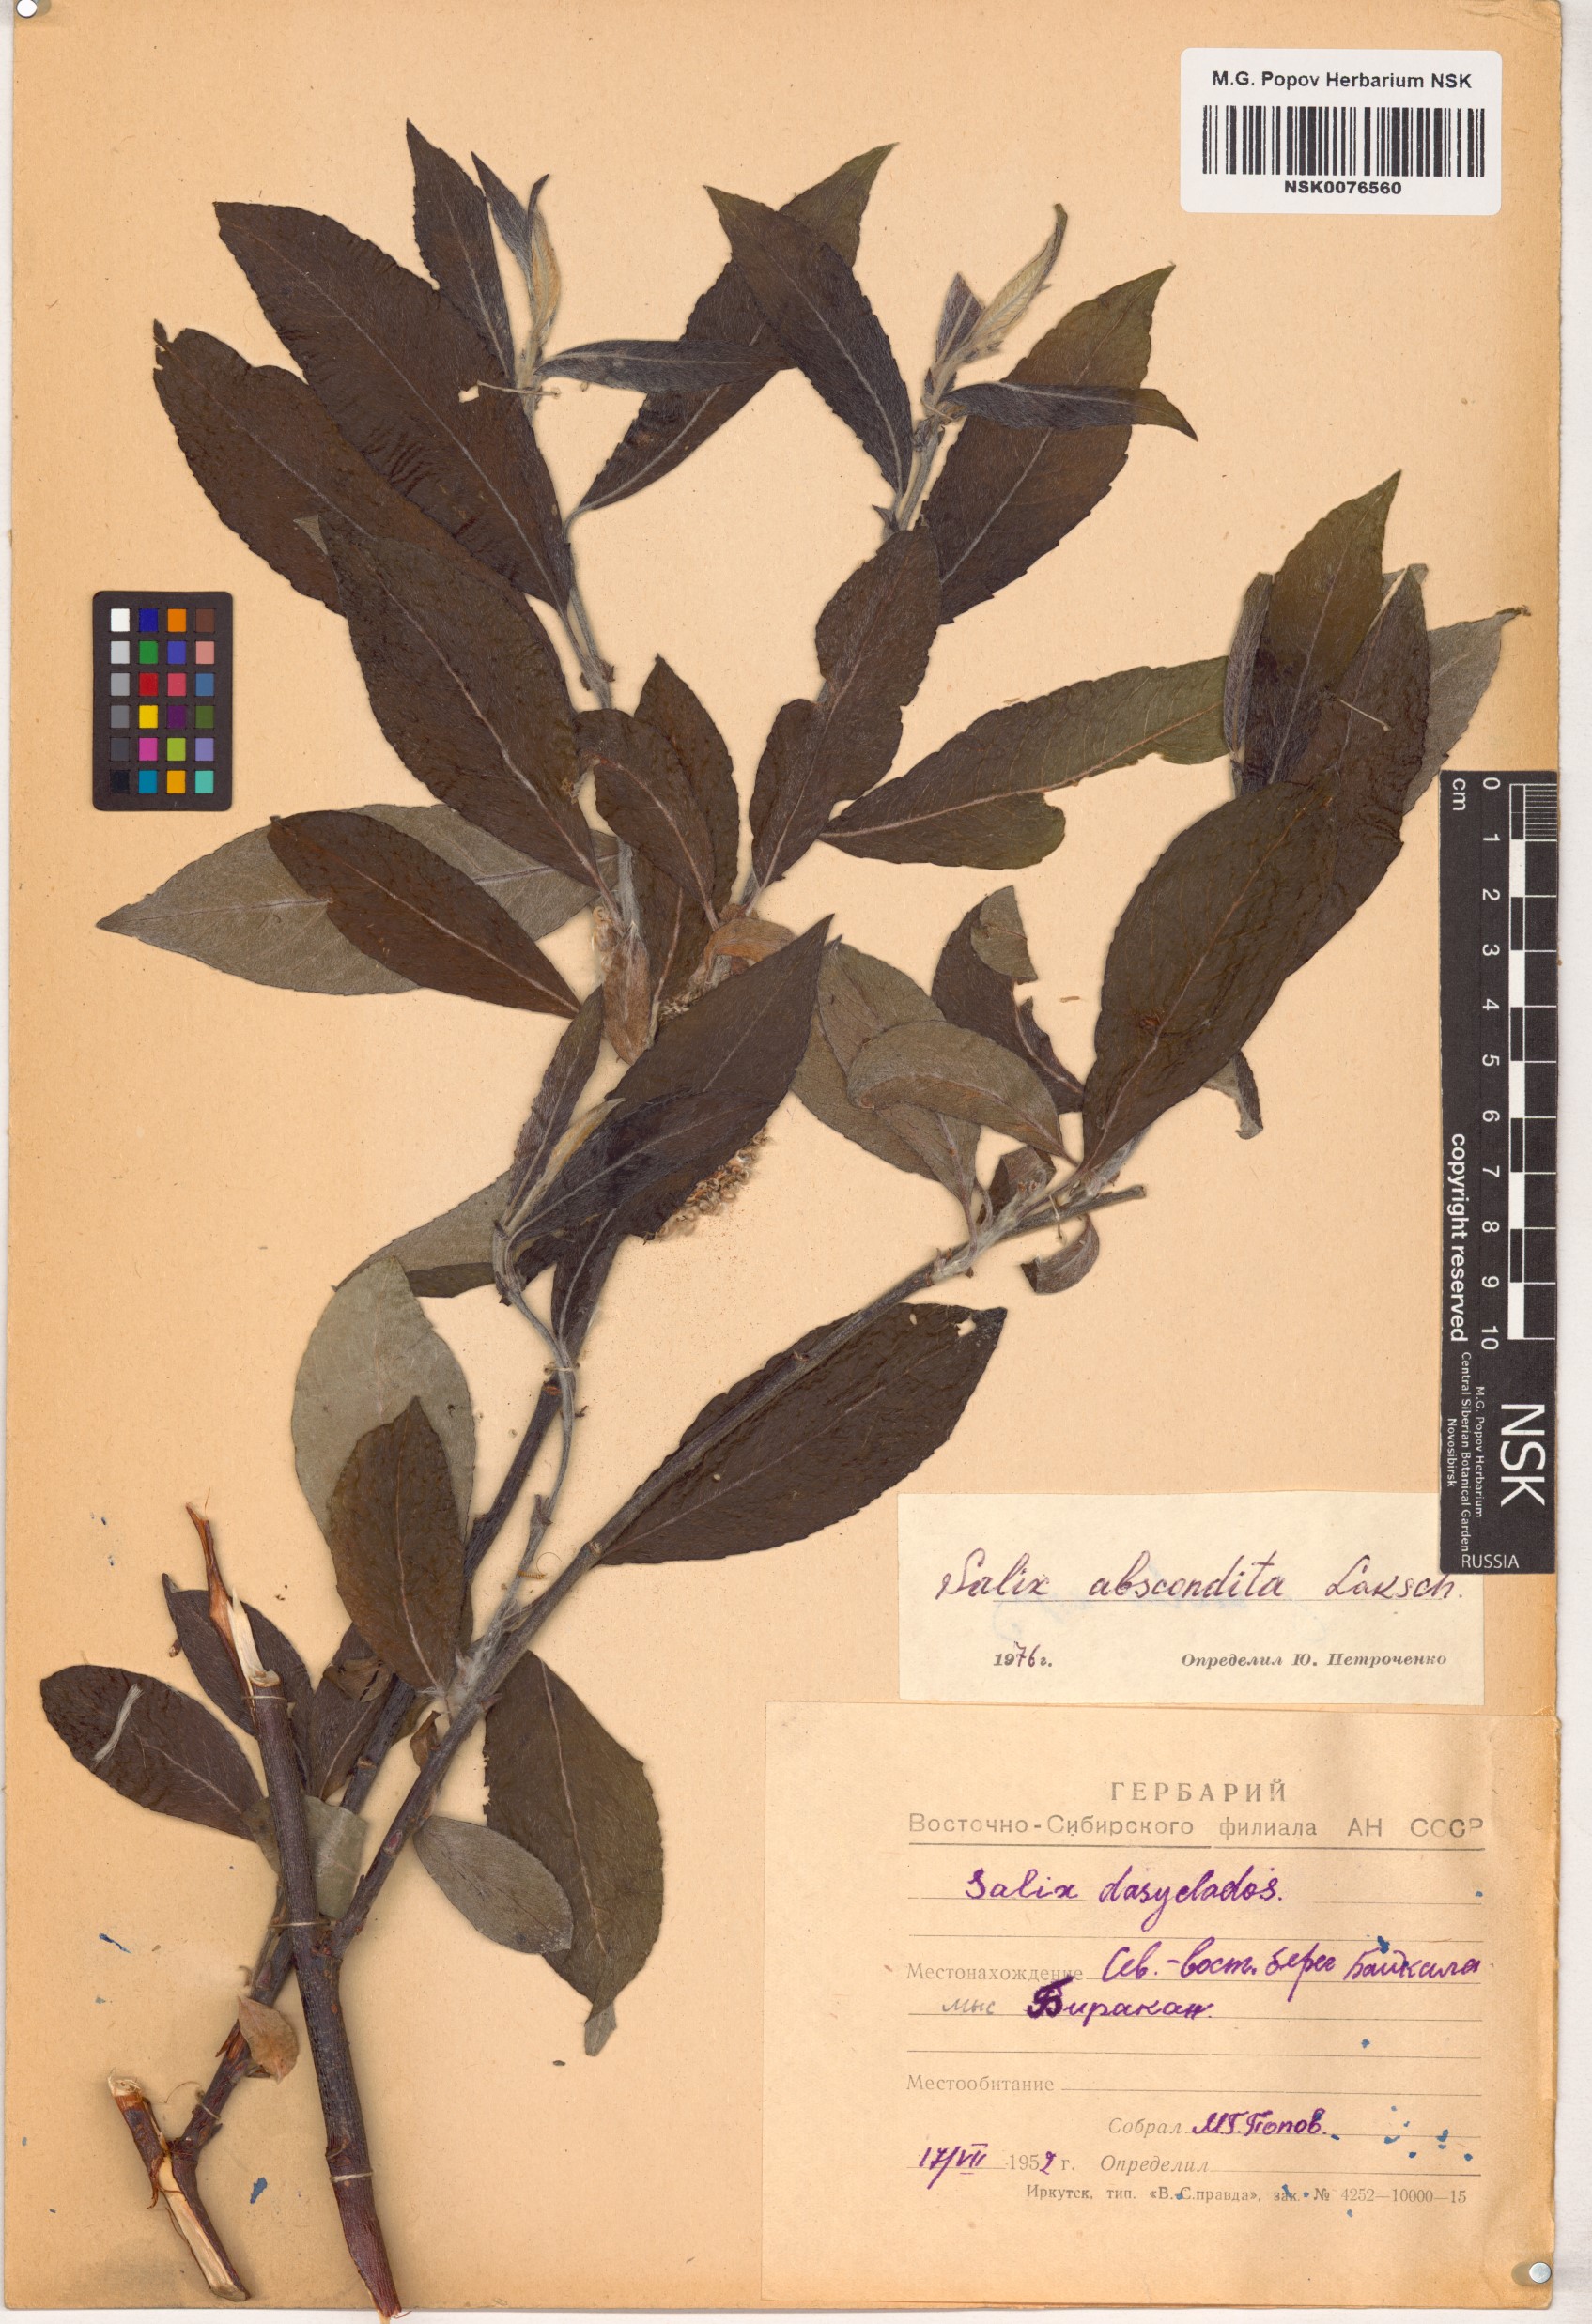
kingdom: Plantae
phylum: Tracheophyta
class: Magnoliopsida
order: Malpighiales
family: Salicaceae
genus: Salix
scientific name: Salix abscondita
